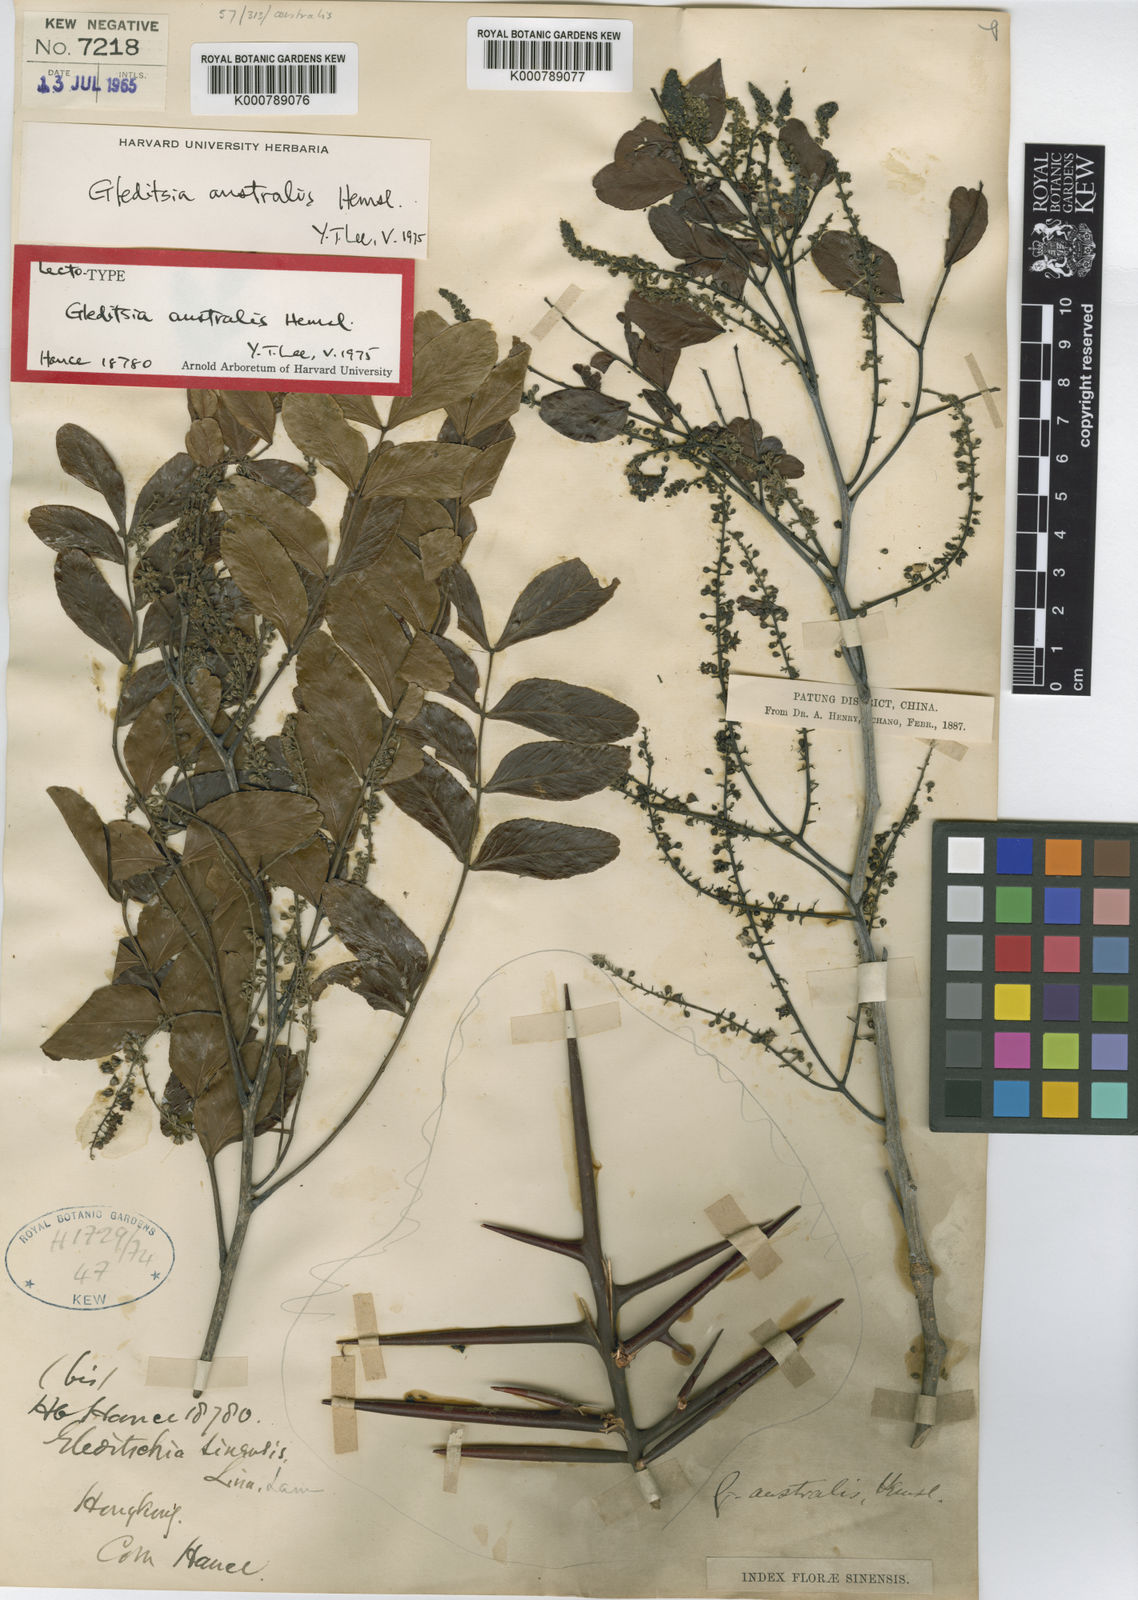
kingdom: Plantae
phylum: Tracheophyta
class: Magnoliopsida
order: Fabales
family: Fabaceae
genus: Gleditsia
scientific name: Gleditsia australis
